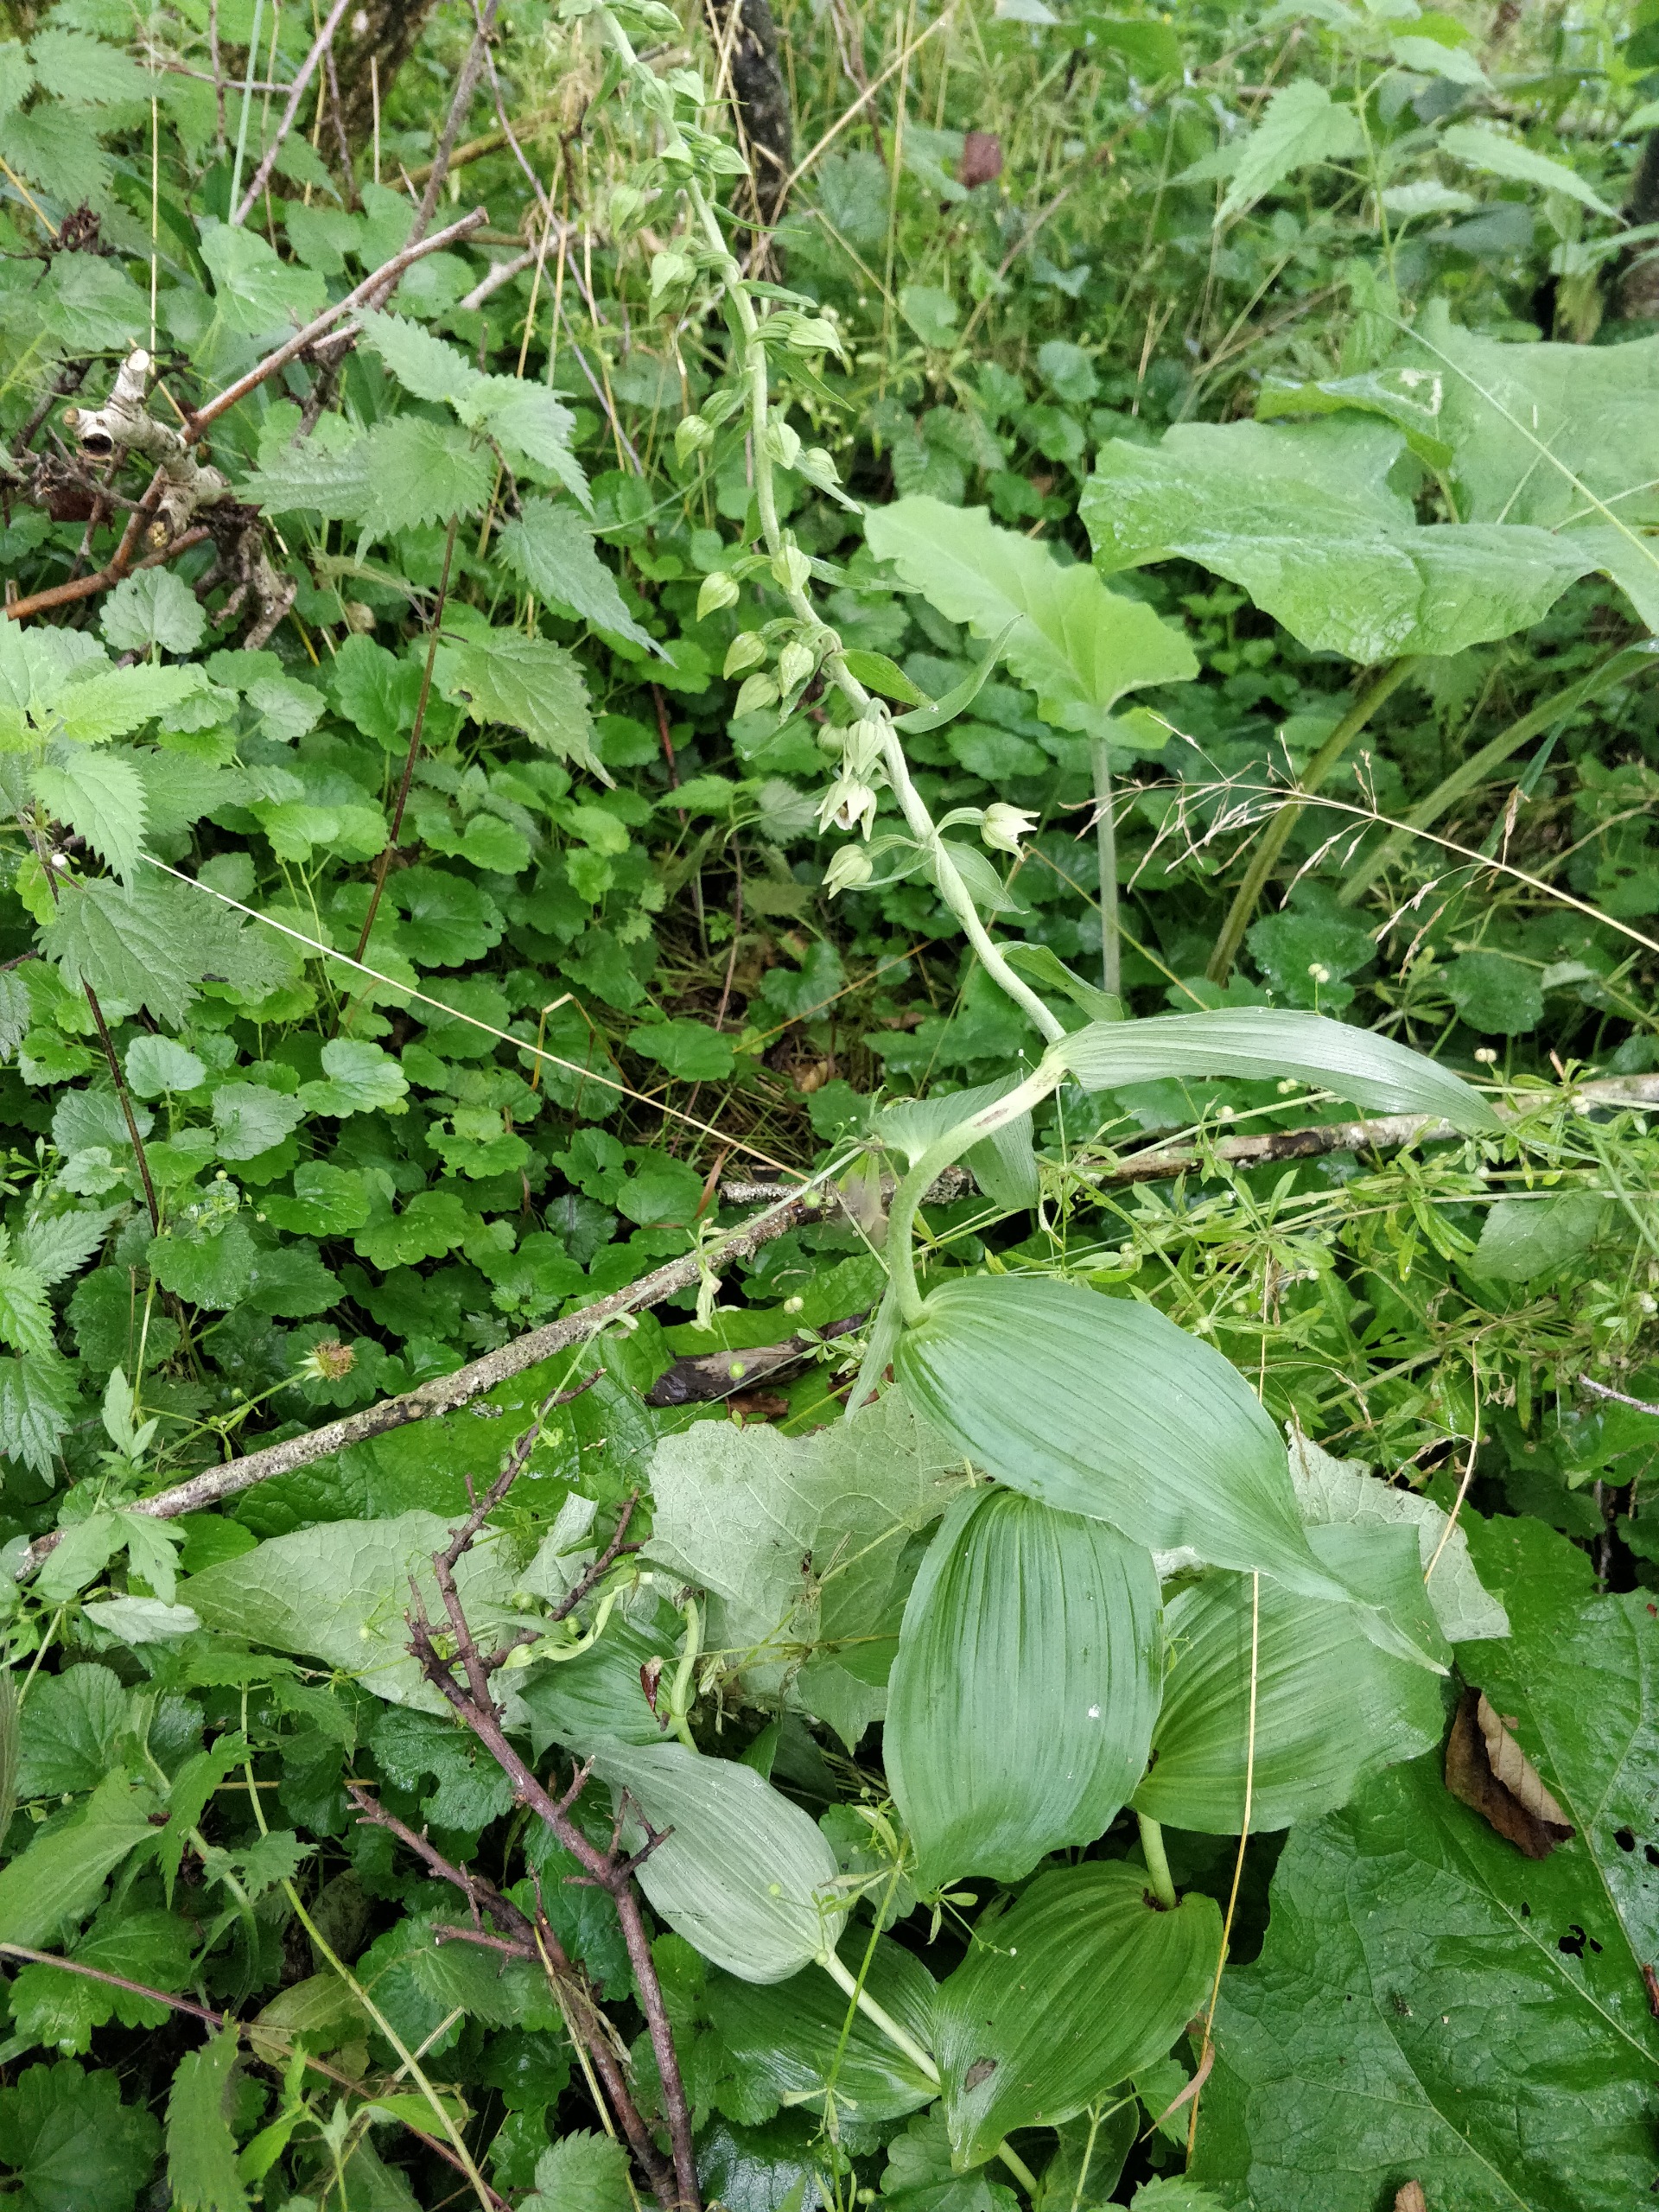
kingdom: Plantae
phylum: Tracheophyta
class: Liliopsida
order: Asparagales
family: Orchidaceae
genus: Epipactis
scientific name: Epipactis helleborine
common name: Skov-hullæbe
